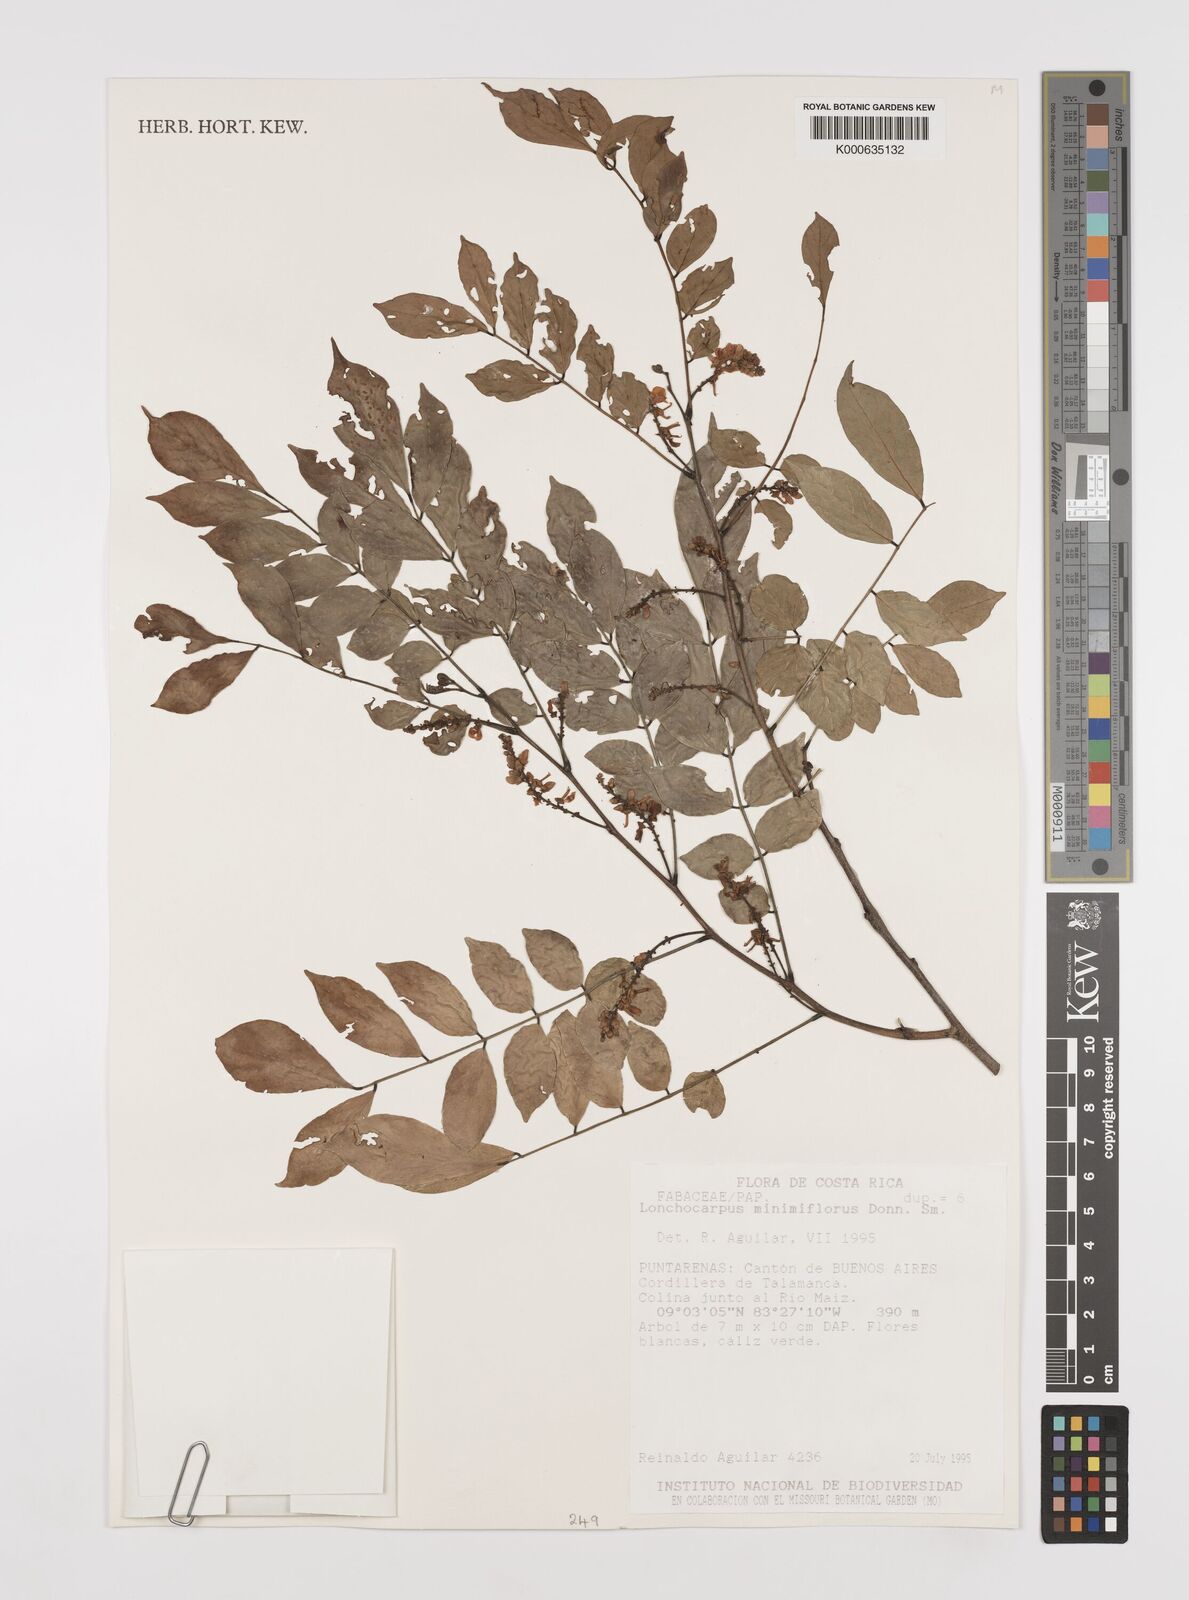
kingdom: Plantae
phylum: Tracheophyta
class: Magnoliopsida
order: Fabales
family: Fabaceae
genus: Lonchocarpus
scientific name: Lonchocarpus minimiflorus
